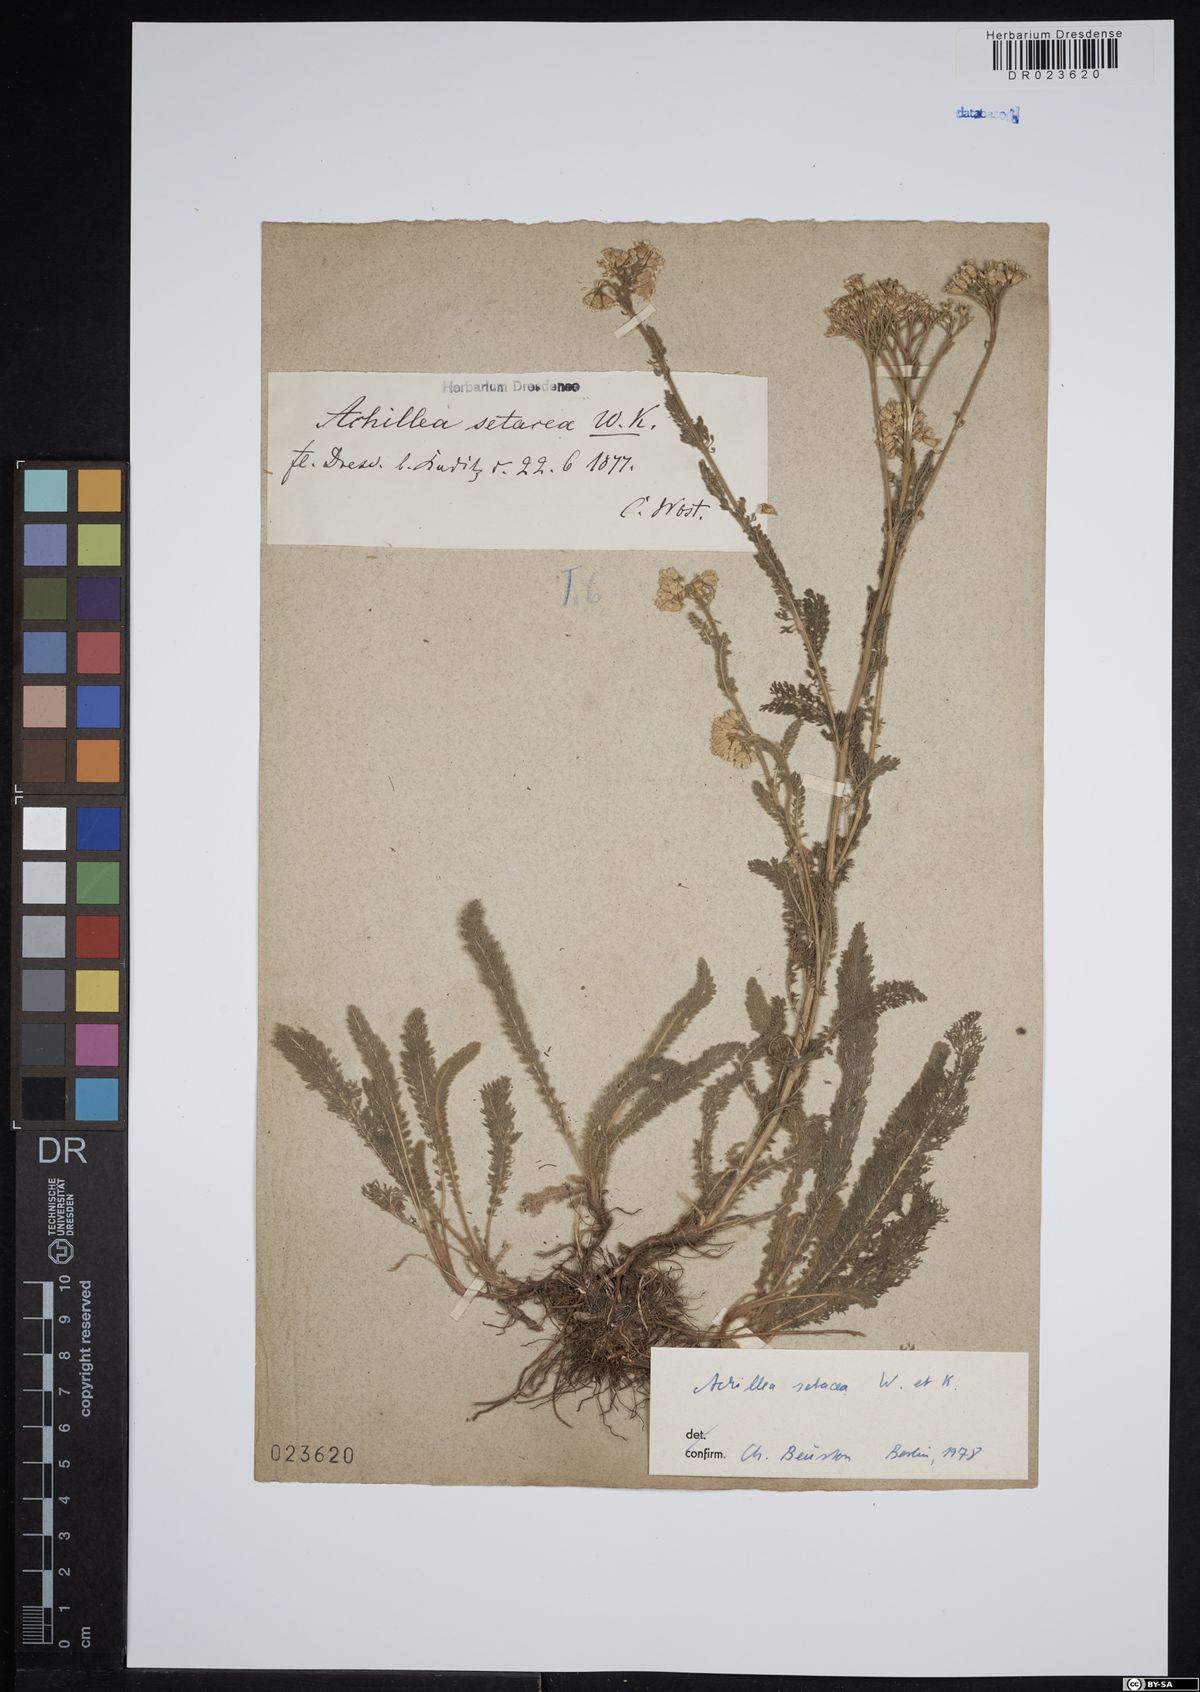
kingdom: Plantae
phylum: Tracheophyta
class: Magnoliopsida
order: Asterales
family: Asteraceae
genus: Achillea
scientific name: Achillea setacea
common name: Bristly yarrow
